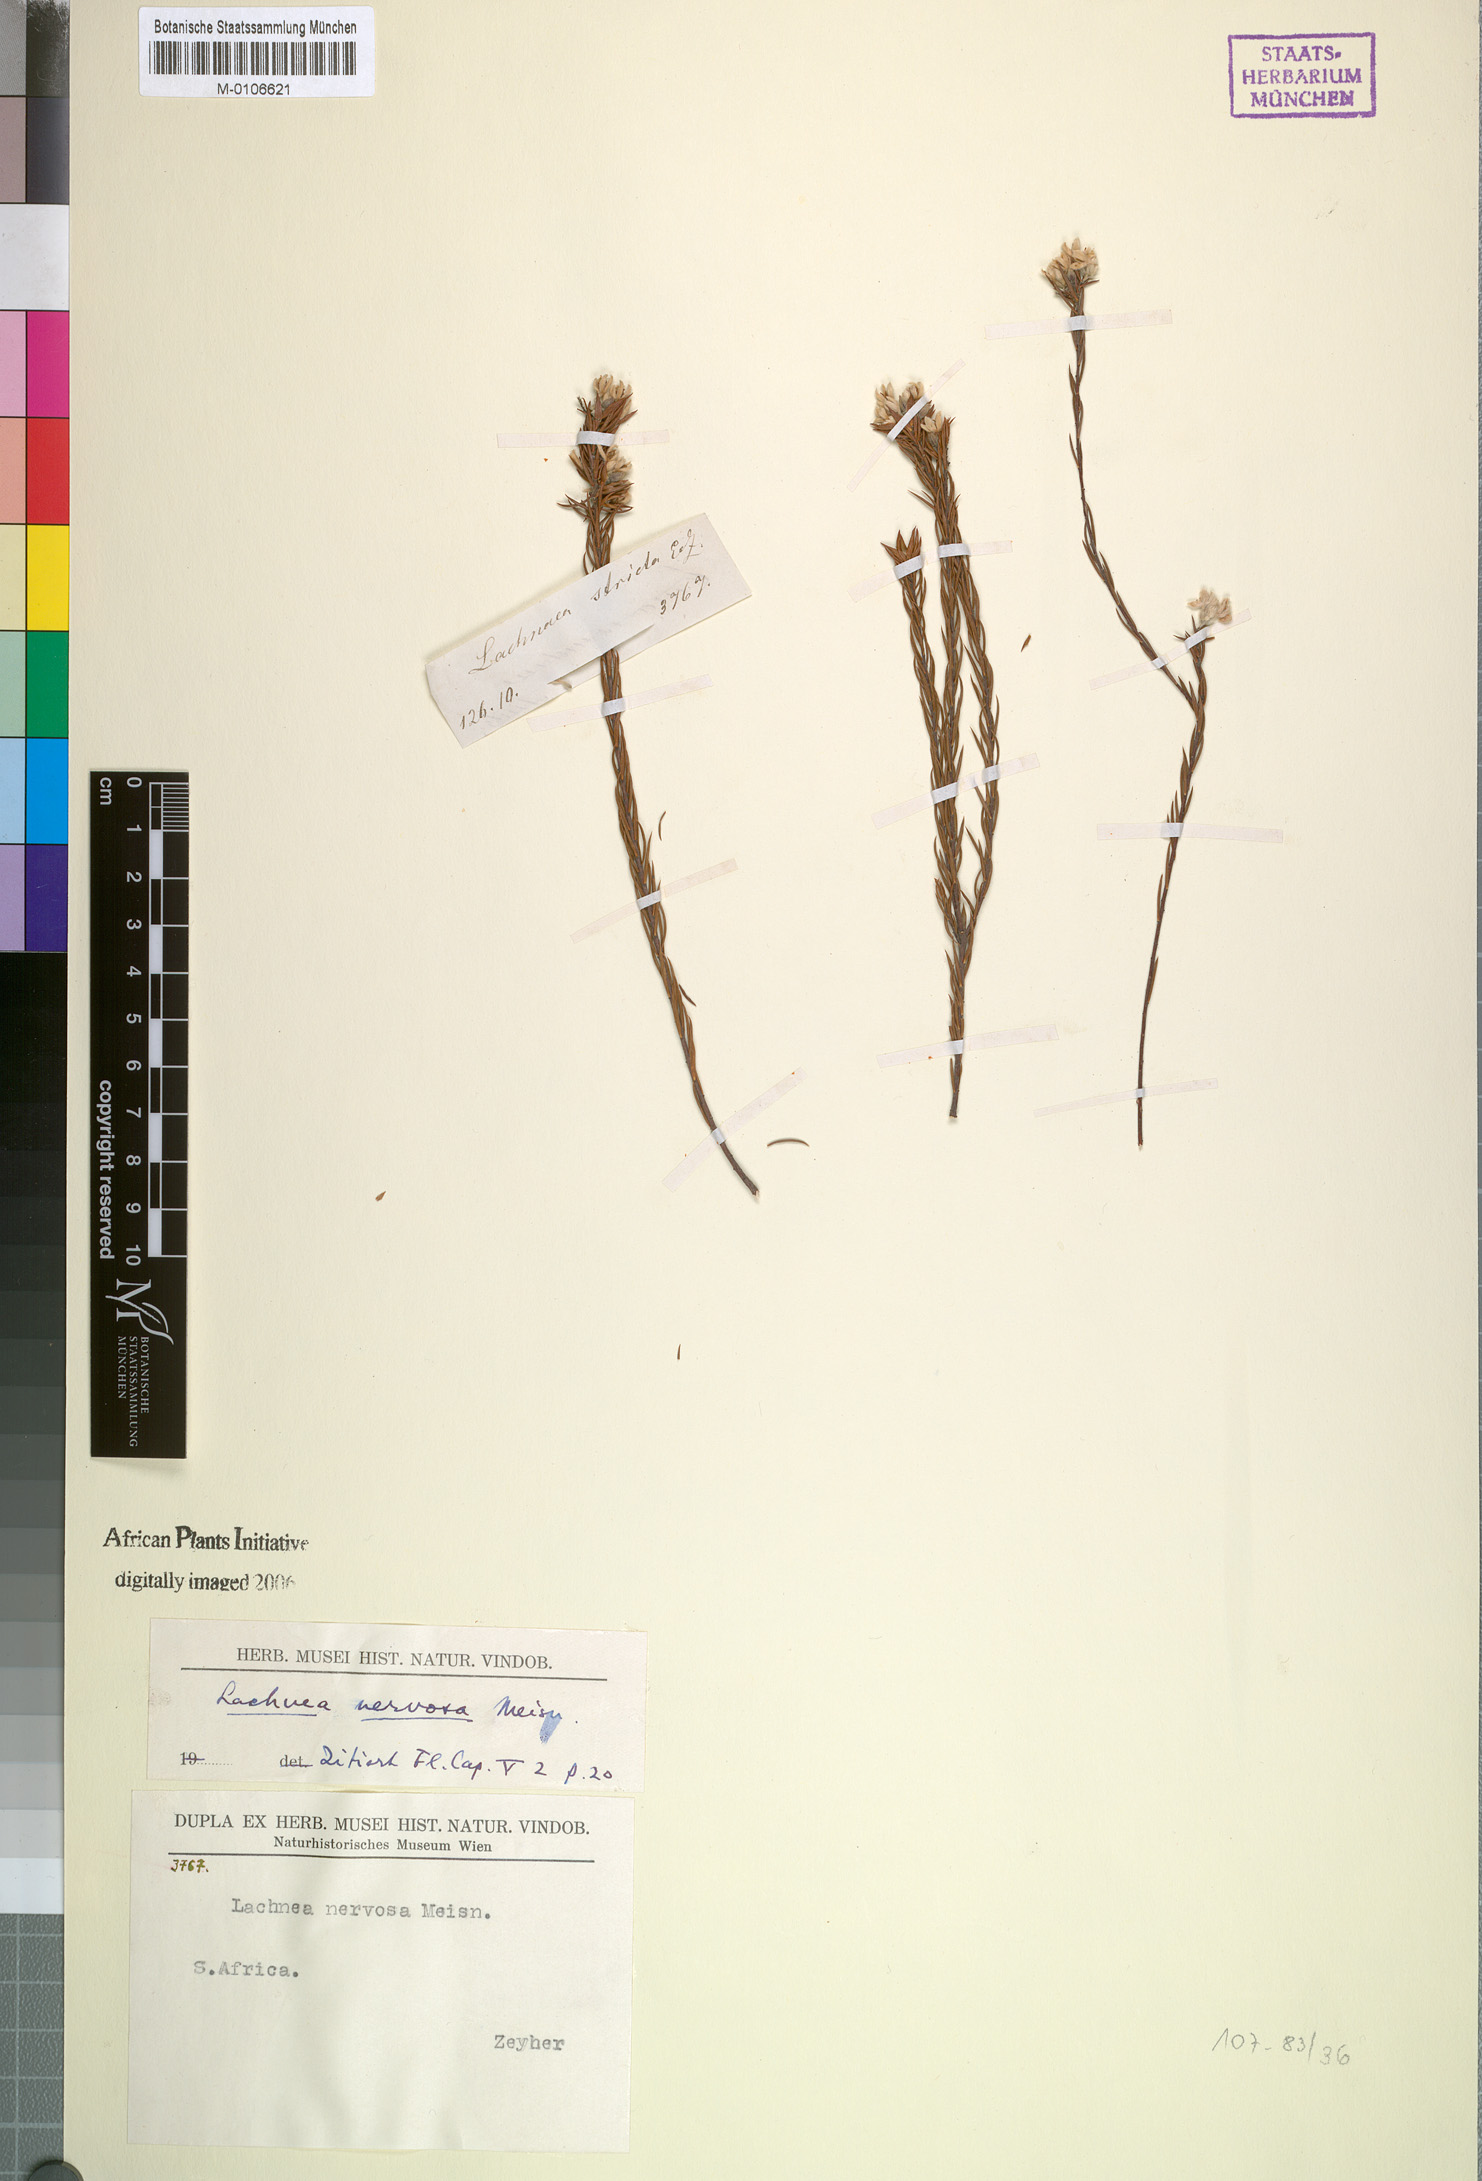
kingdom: Plantae
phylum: Tracheophyta
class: Magnoliopsida
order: Malvales
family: Thymelaeaceae
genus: Lachnaea
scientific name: Lachnaea nervosa
